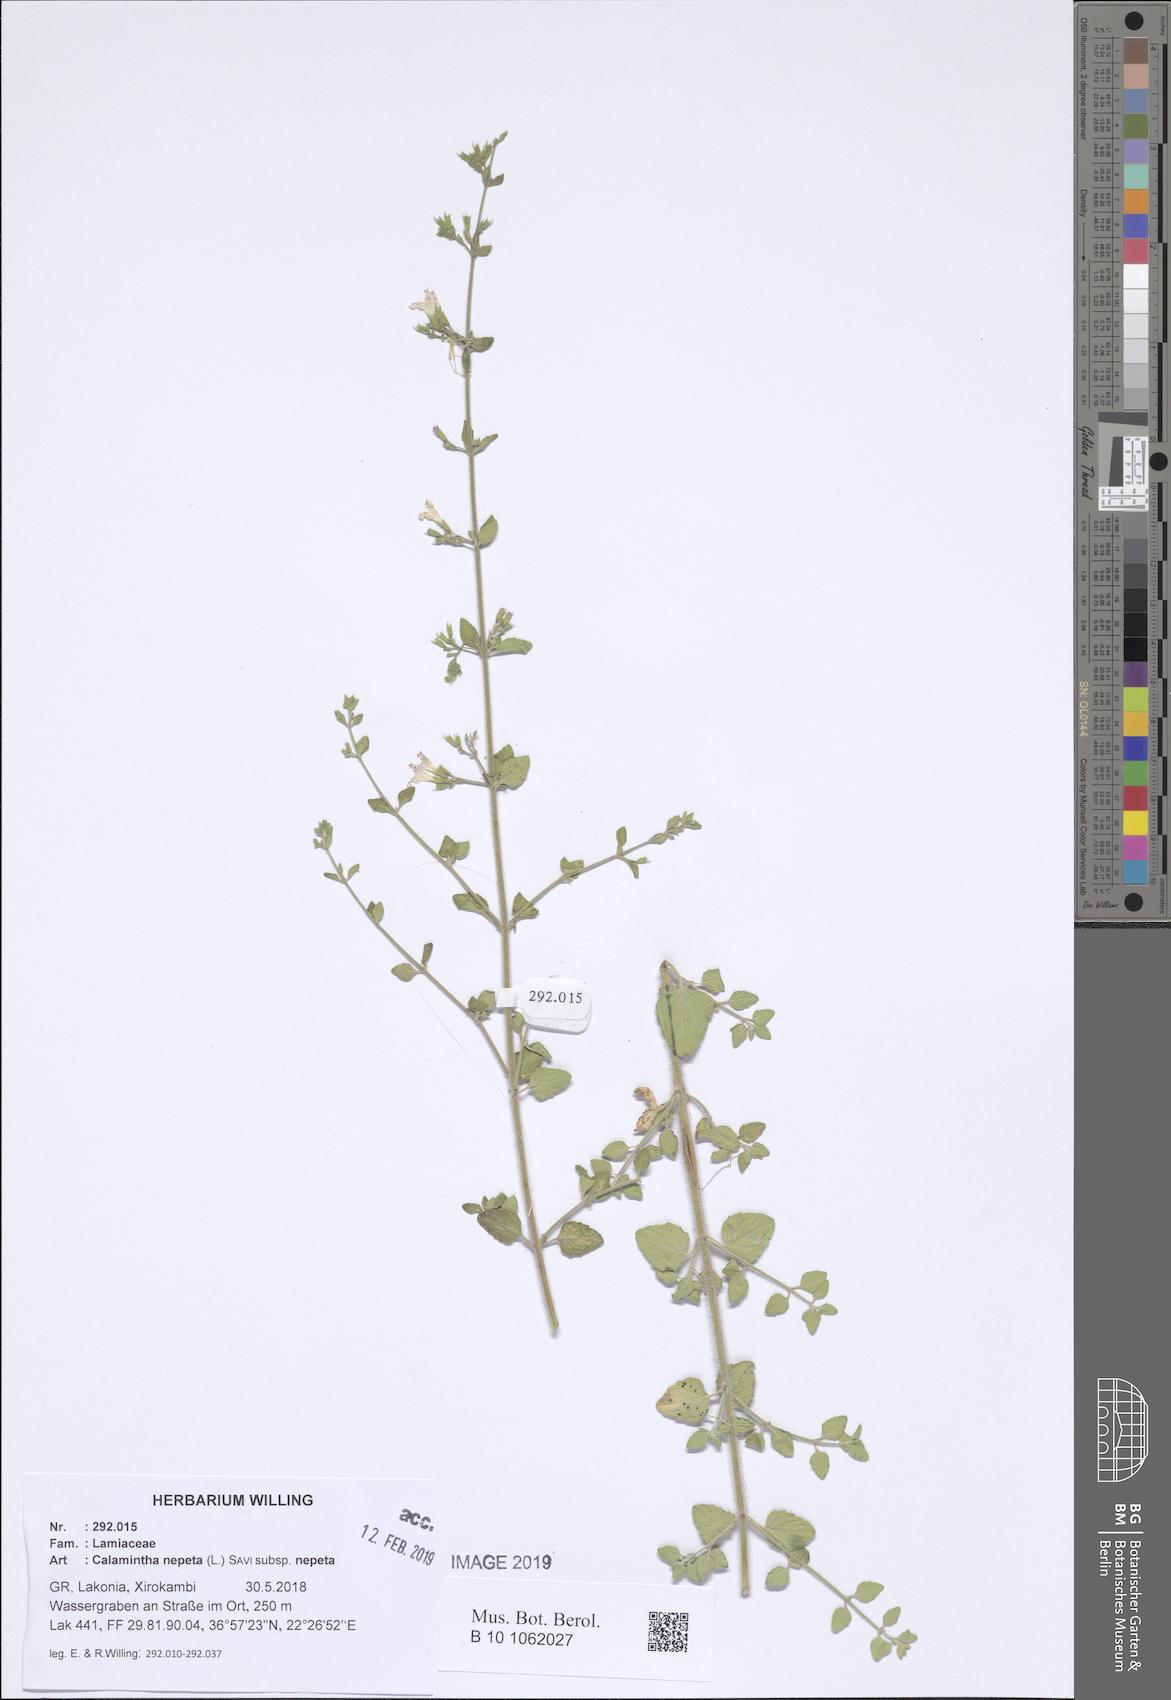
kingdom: Plantae
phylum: Tracheophyta
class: Magnoliopsida
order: Lamiales
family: Lamiaceae
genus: Clinopodium
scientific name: Clinopodium nepeta
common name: Lesser calamint
